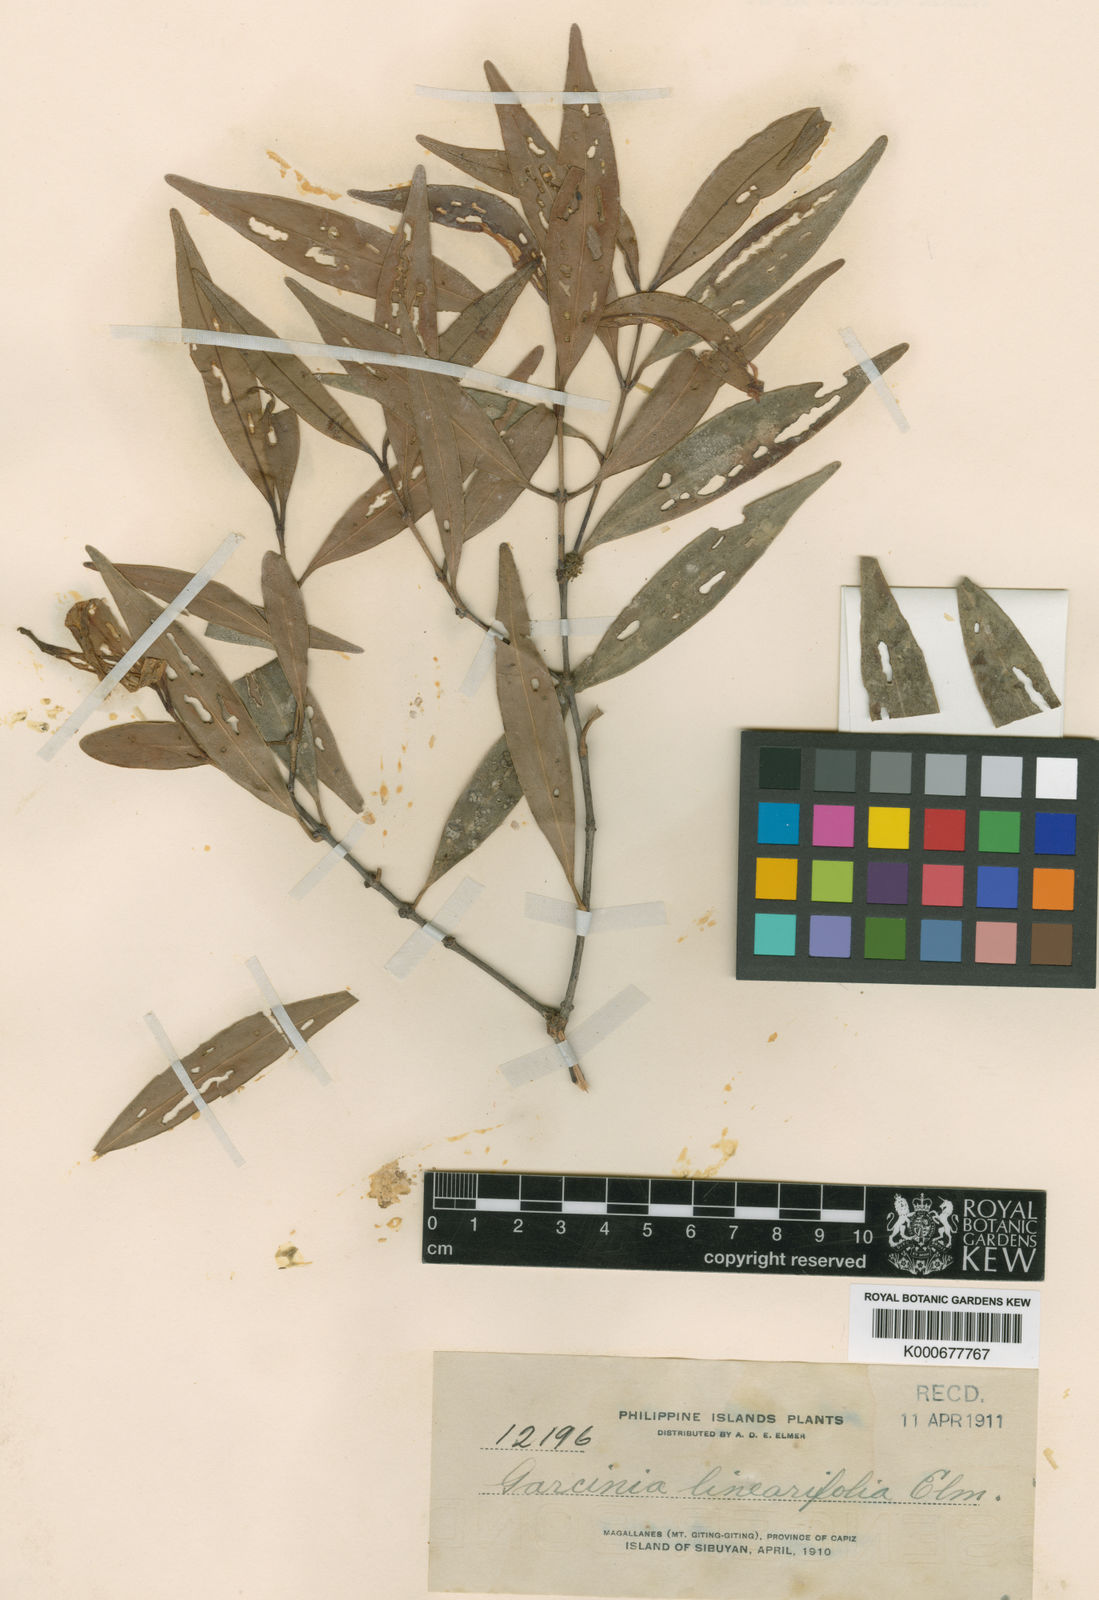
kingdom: Plantae
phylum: Tracheophyta
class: Magnoliopsida
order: Malpighiales
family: Clusiaceae
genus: Garcinia
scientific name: Garcinia linearifolia
